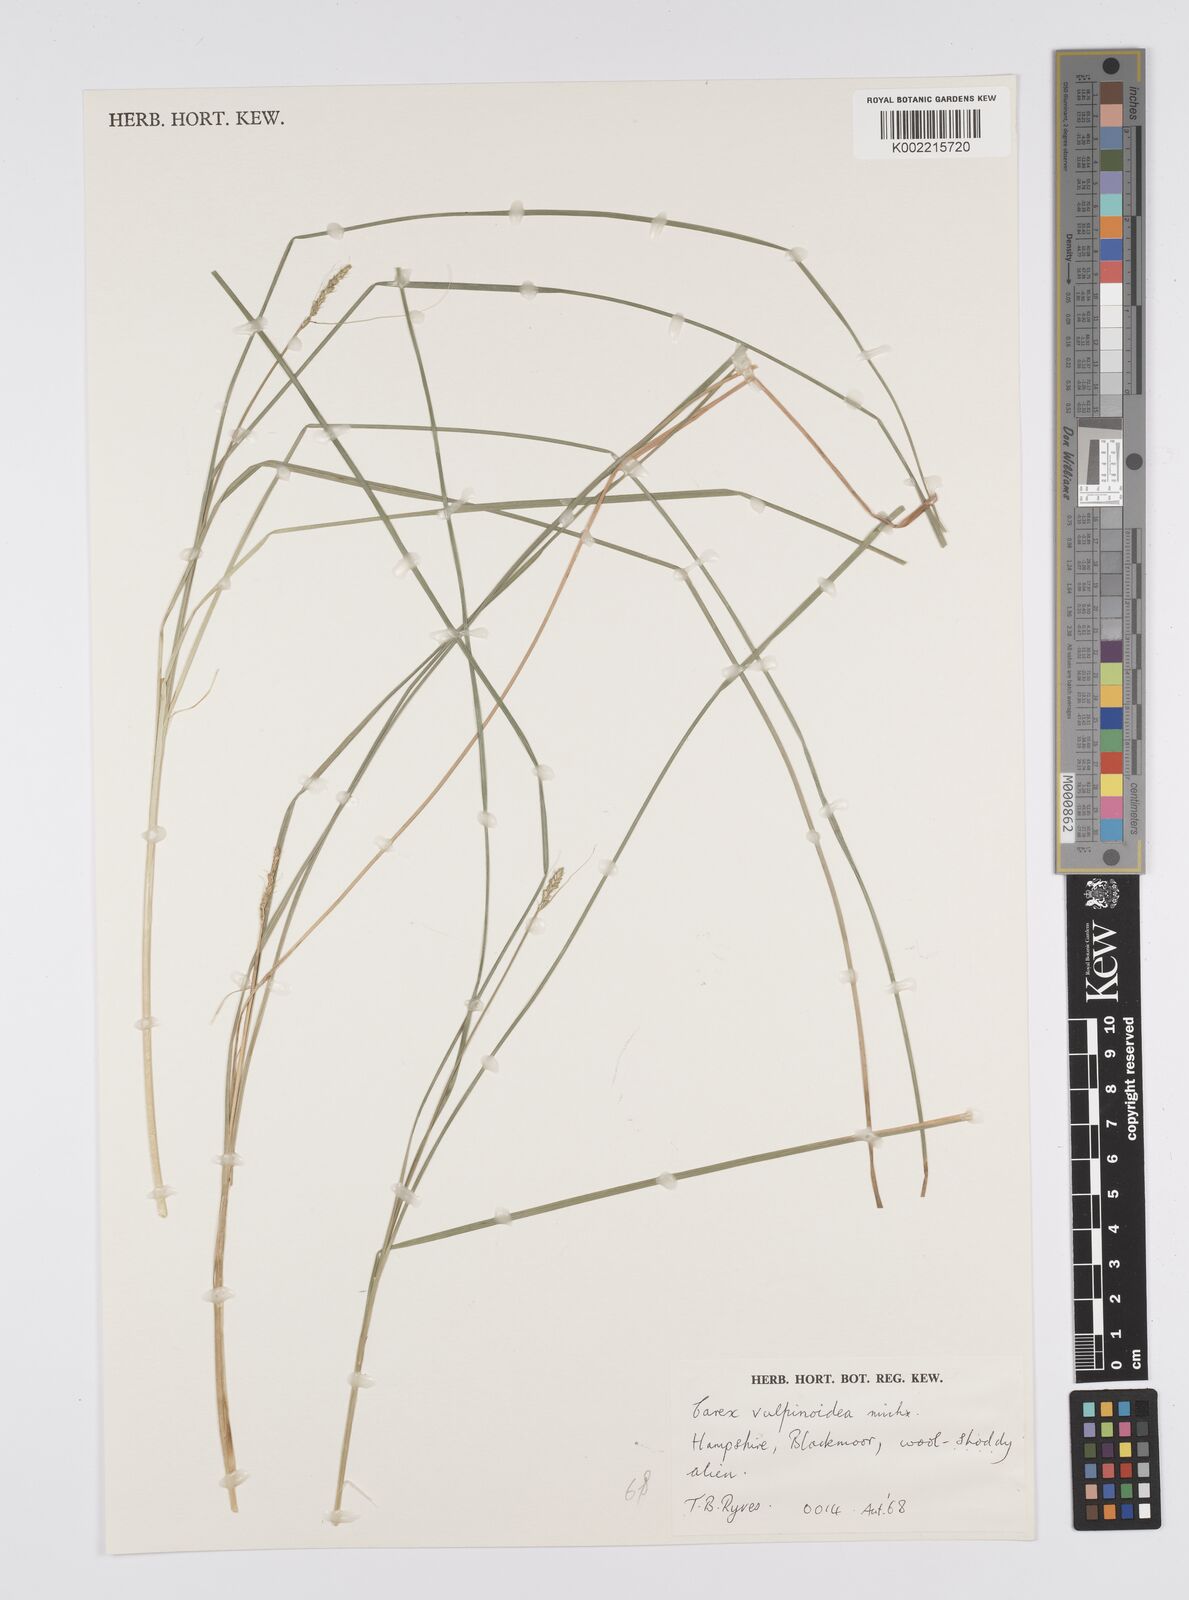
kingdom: Plantae
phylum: Tracheophyta
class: Liliopsida
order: Poales
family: Cyperaceae
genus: Carex
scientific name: Carex vulpinoidea
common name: American fox-sedge
